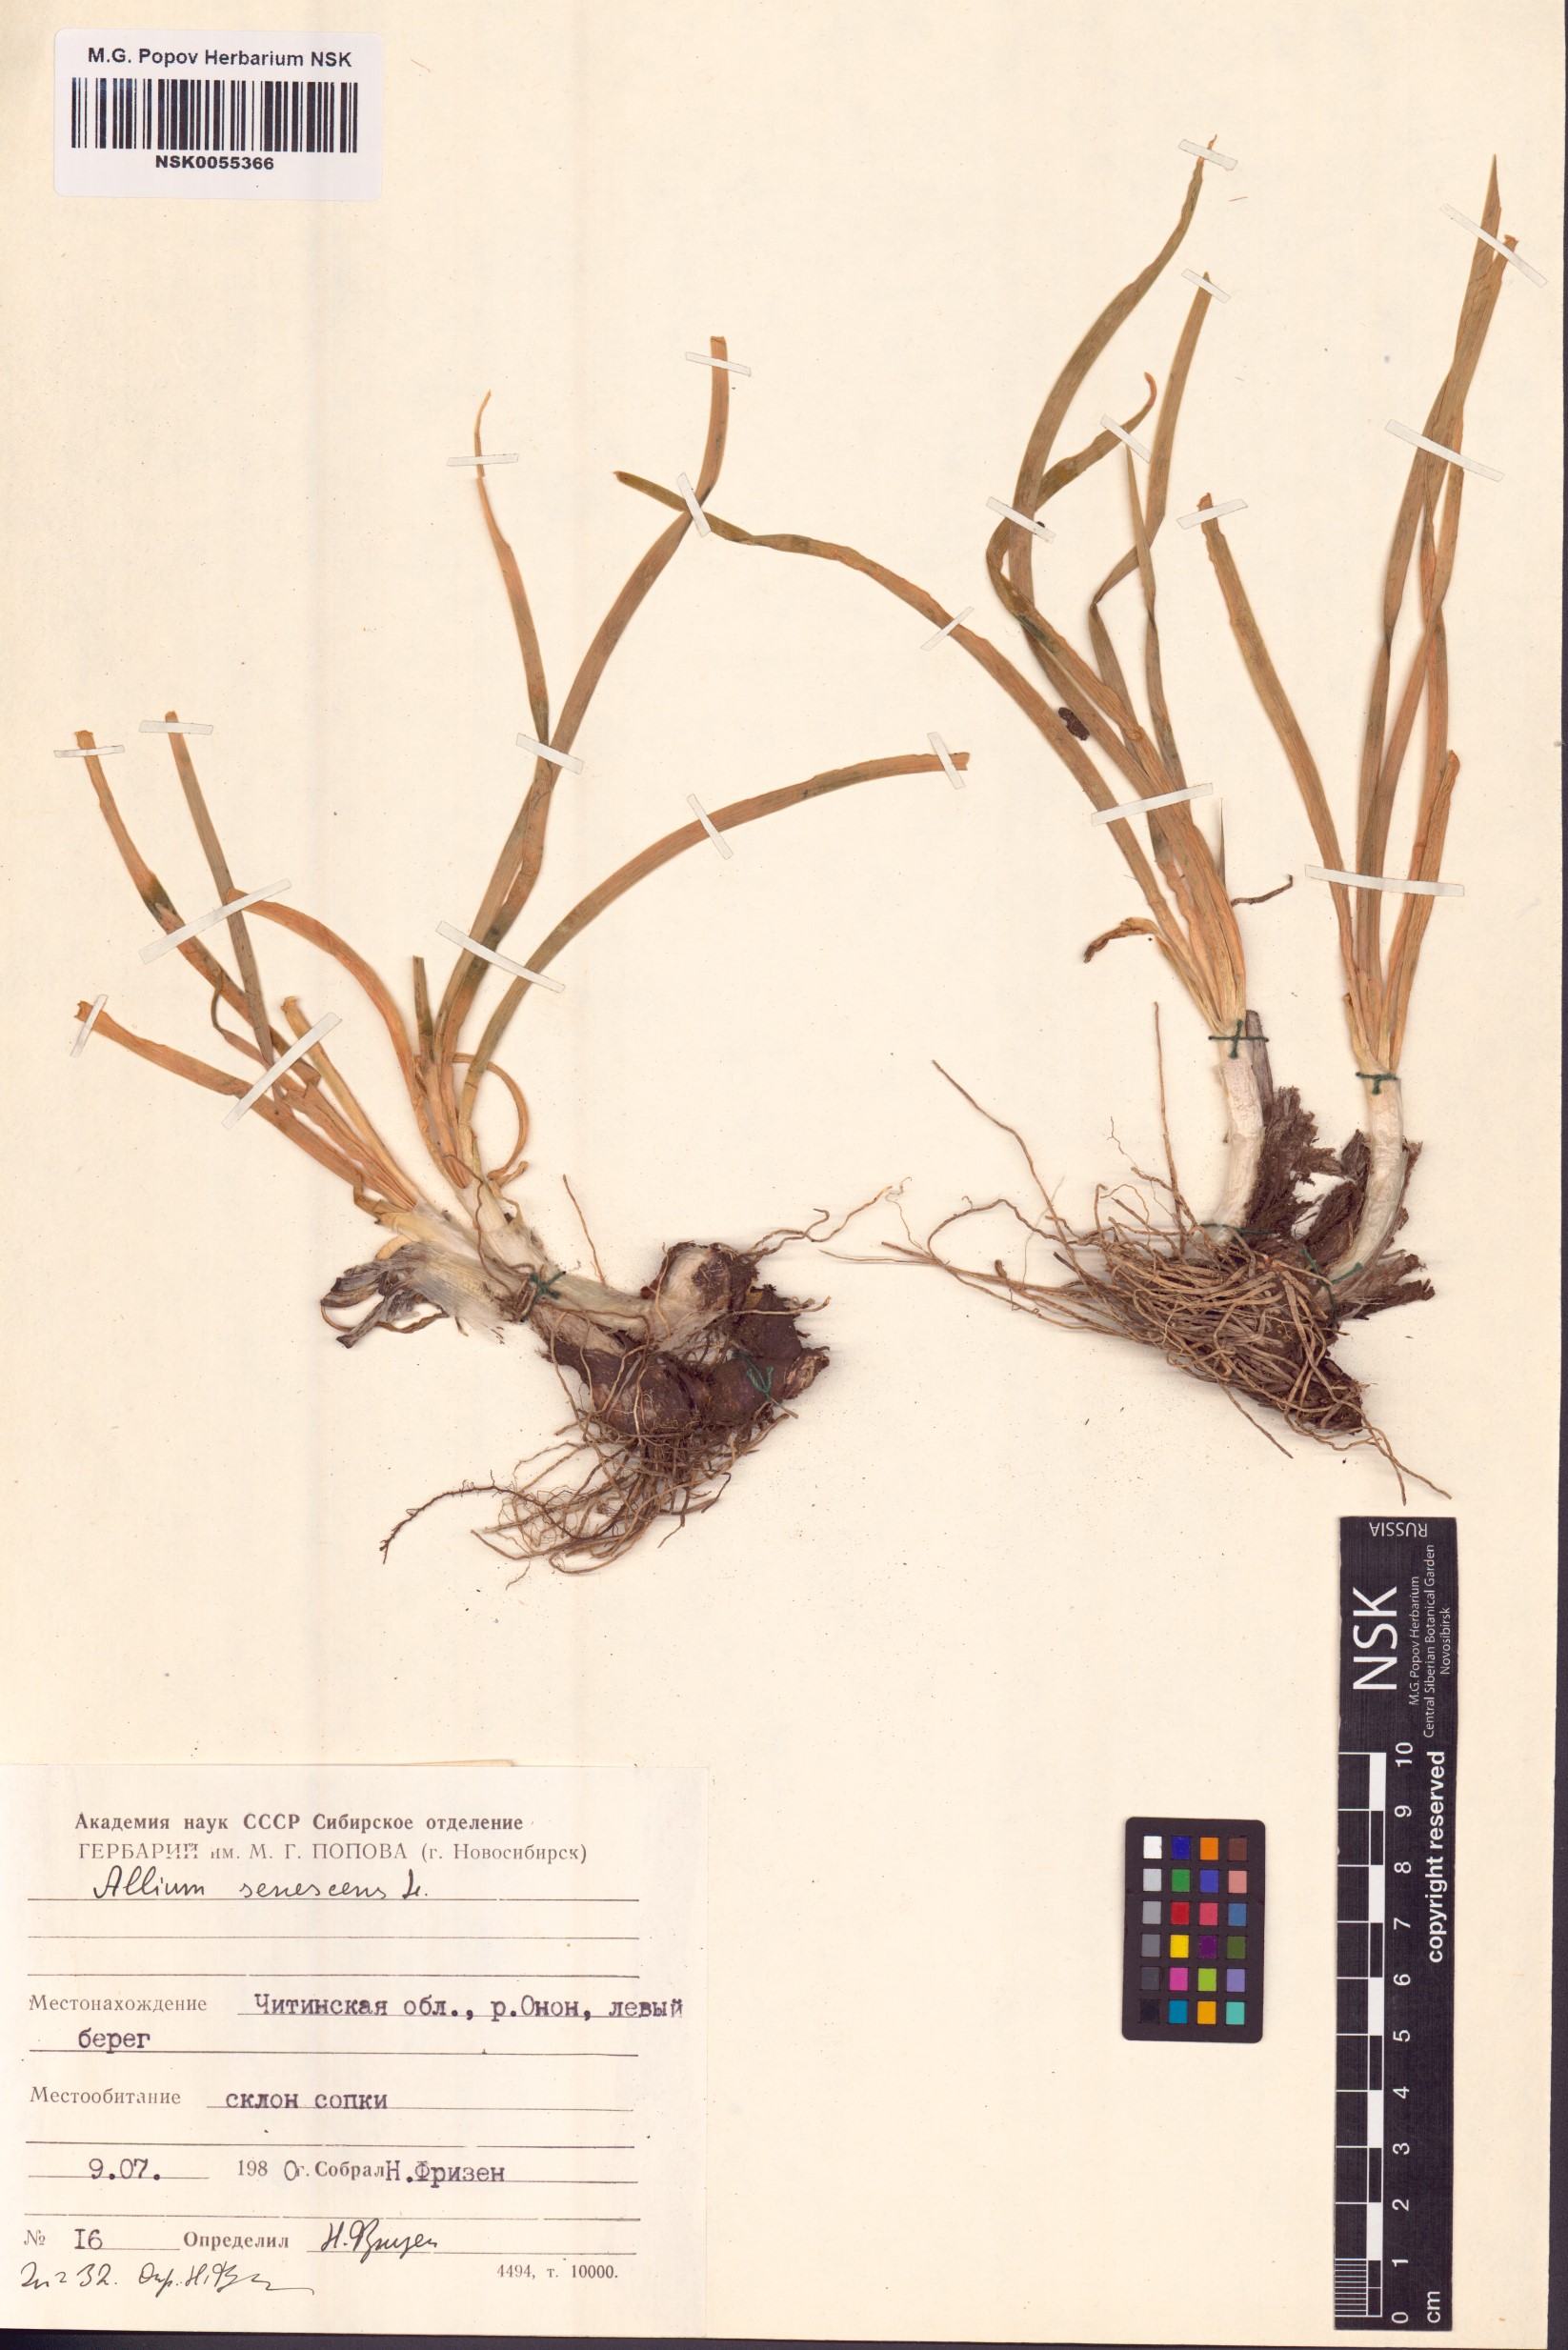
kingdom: Plantae
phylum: Tracheophyta
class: Liliopsida
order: Asparagales
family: Amaryllidaceae
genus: Allium
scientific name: Allium senescens
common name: German garlic
